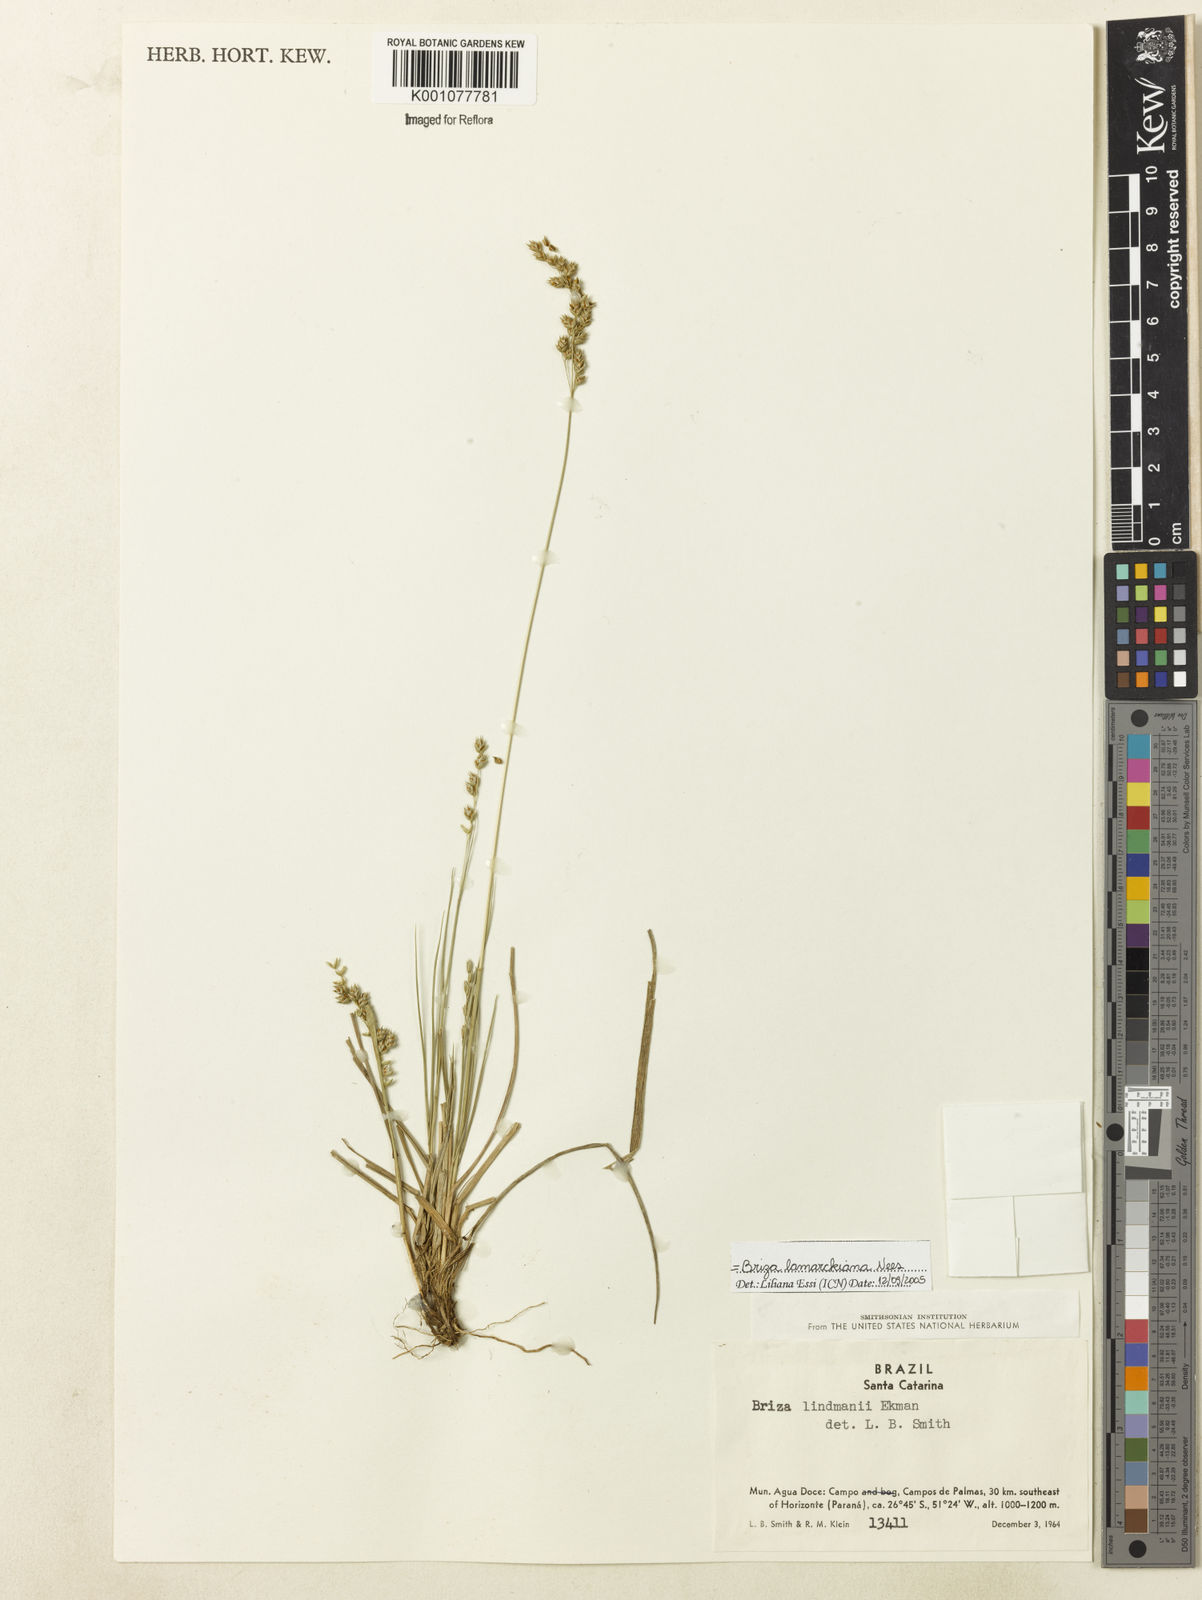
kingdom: Plantae
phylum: Tracheophyta
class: Liliopsida
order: Poales
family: Poaceae
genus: Chascolytrum
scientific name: Chascolytrum lamarckianum
